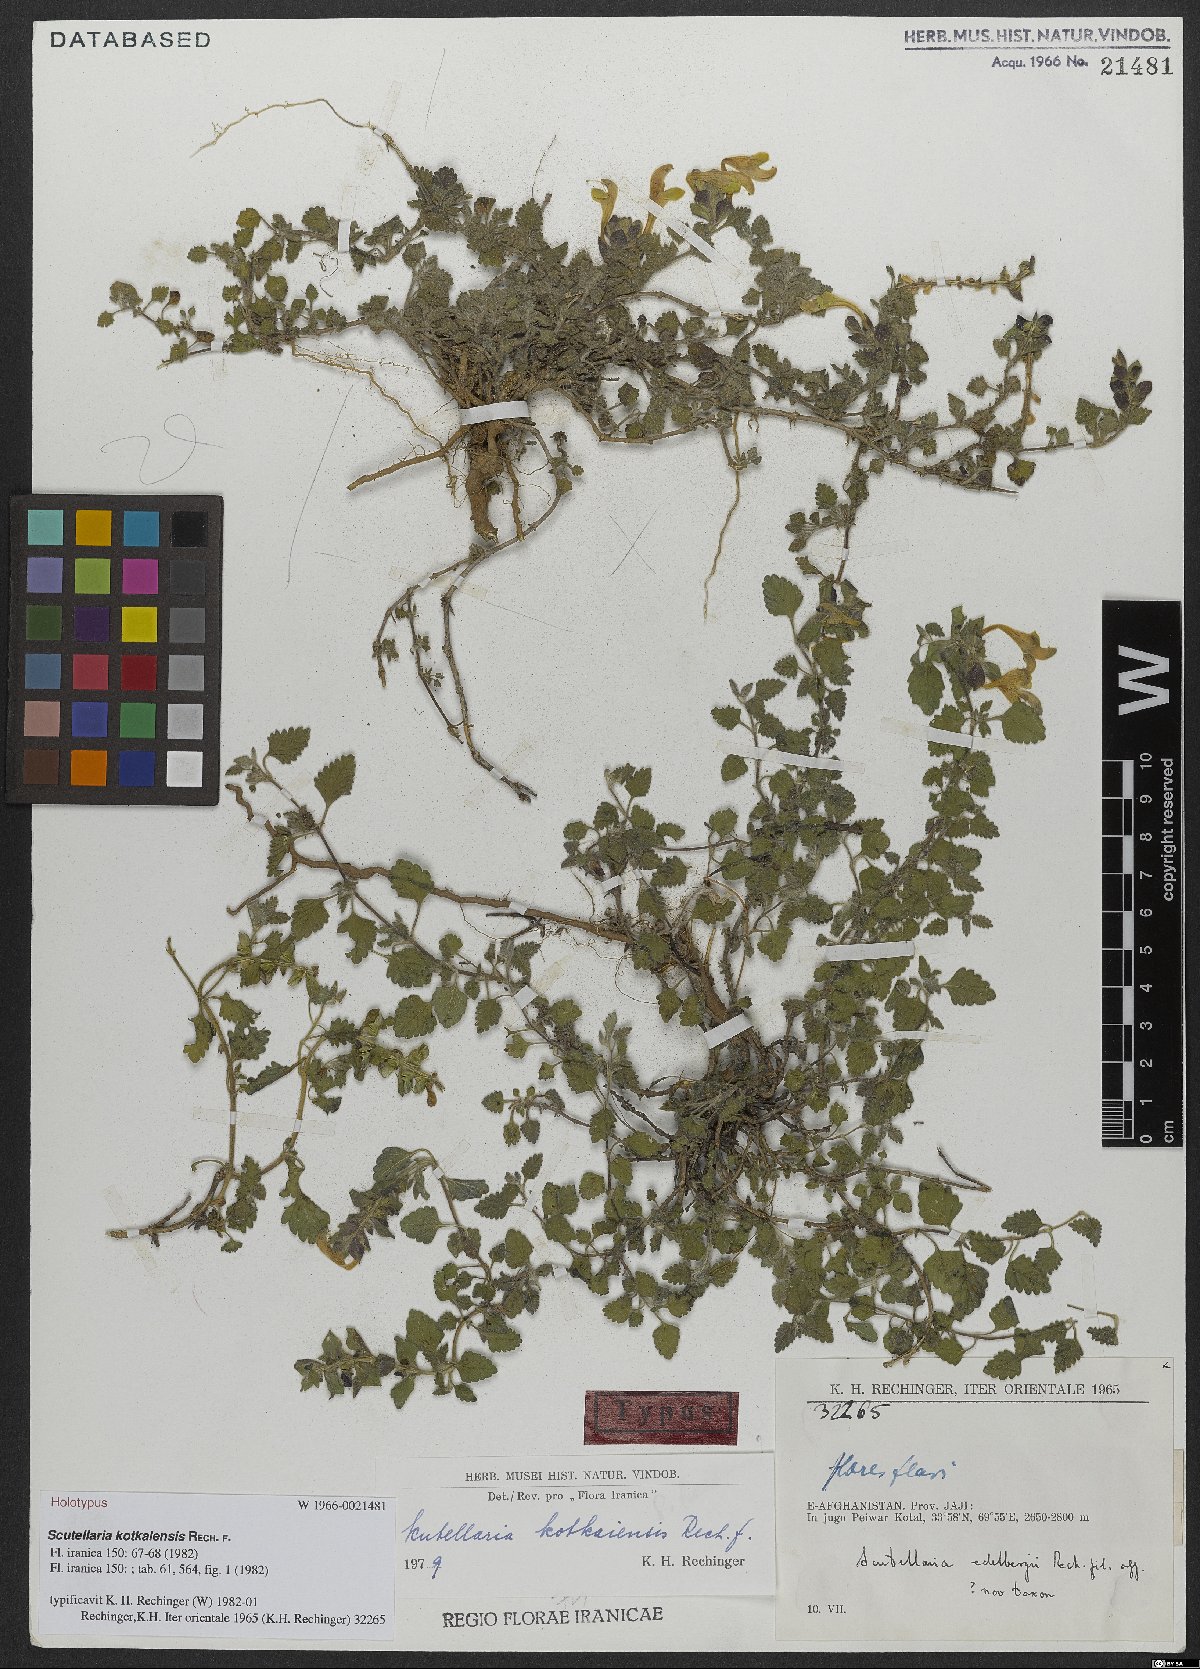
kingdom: Plantae
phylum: Tracheophyta
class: Magnoliopsida
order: Lamiales
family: Lamiaceae
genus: Scutellaria
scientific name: Scutellaria kotkaiensis
